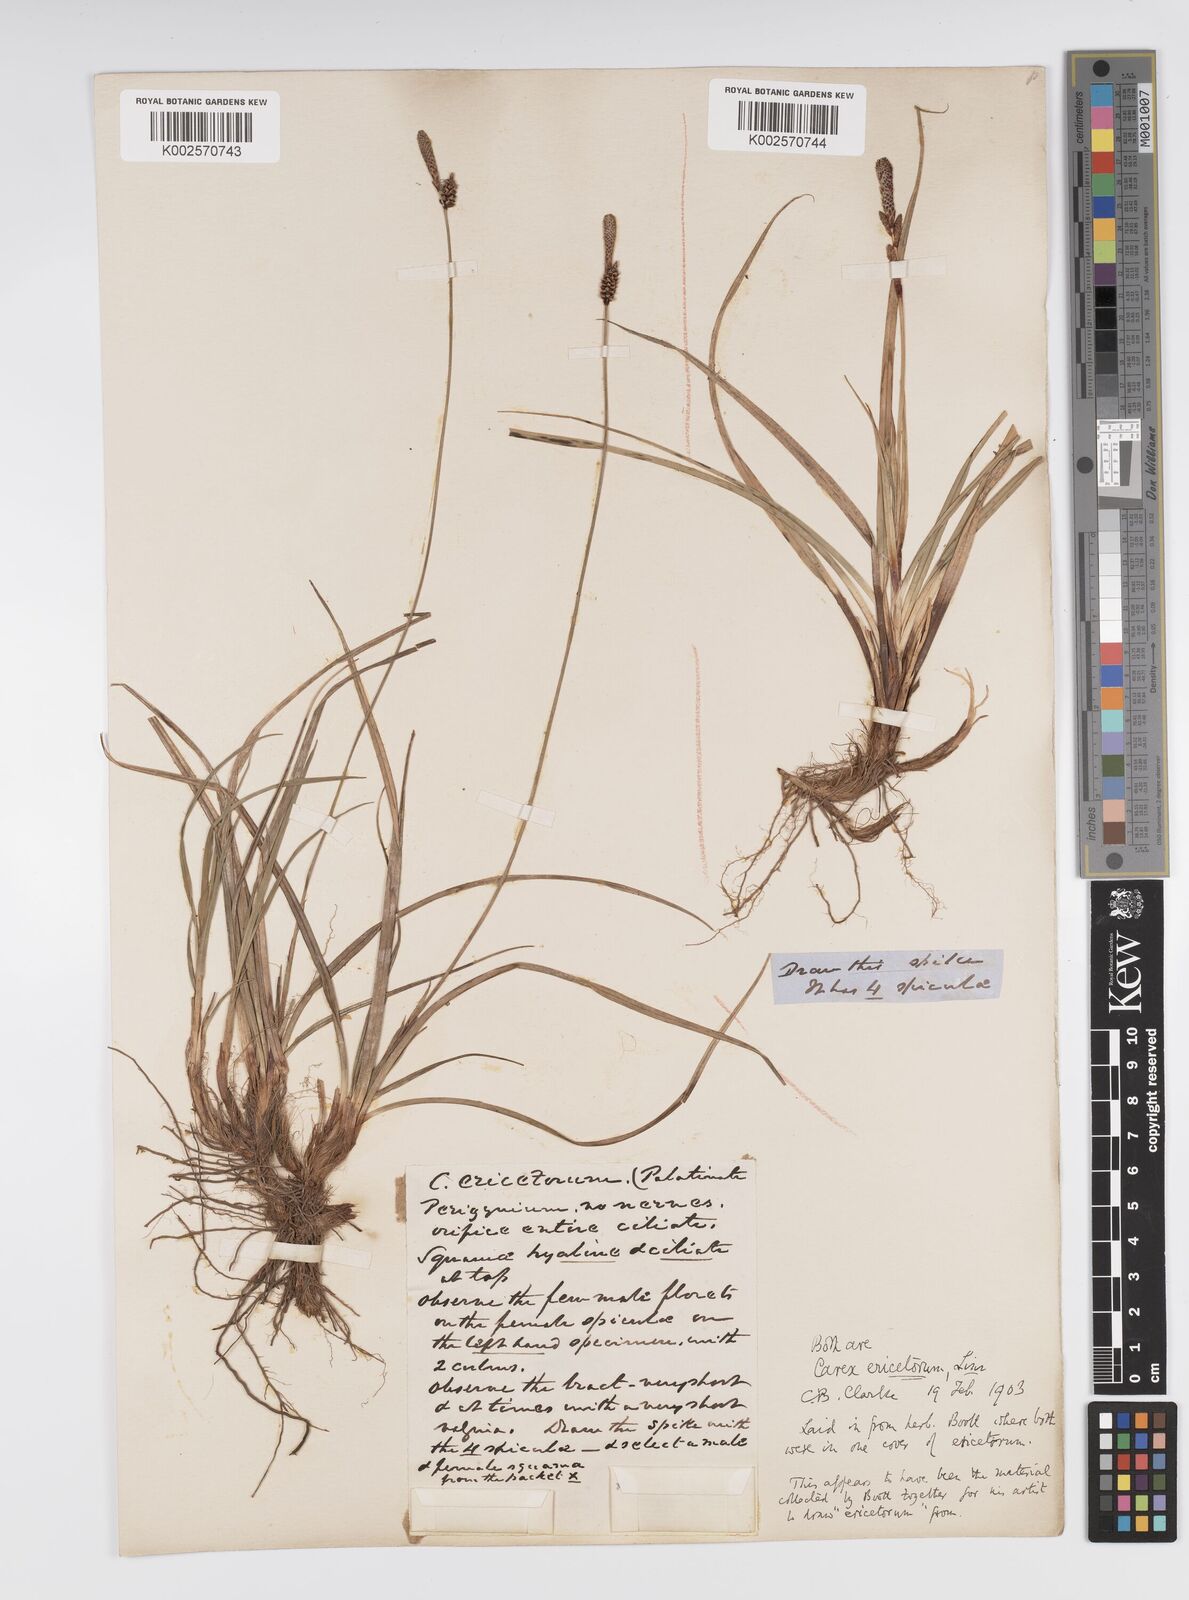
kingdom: Plantae
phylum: Tracheophyta
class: Liliopsida
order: Poales
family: Cyperaceae
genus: Carex
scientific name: Carex ericetorum
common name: Rare spring-sedge
